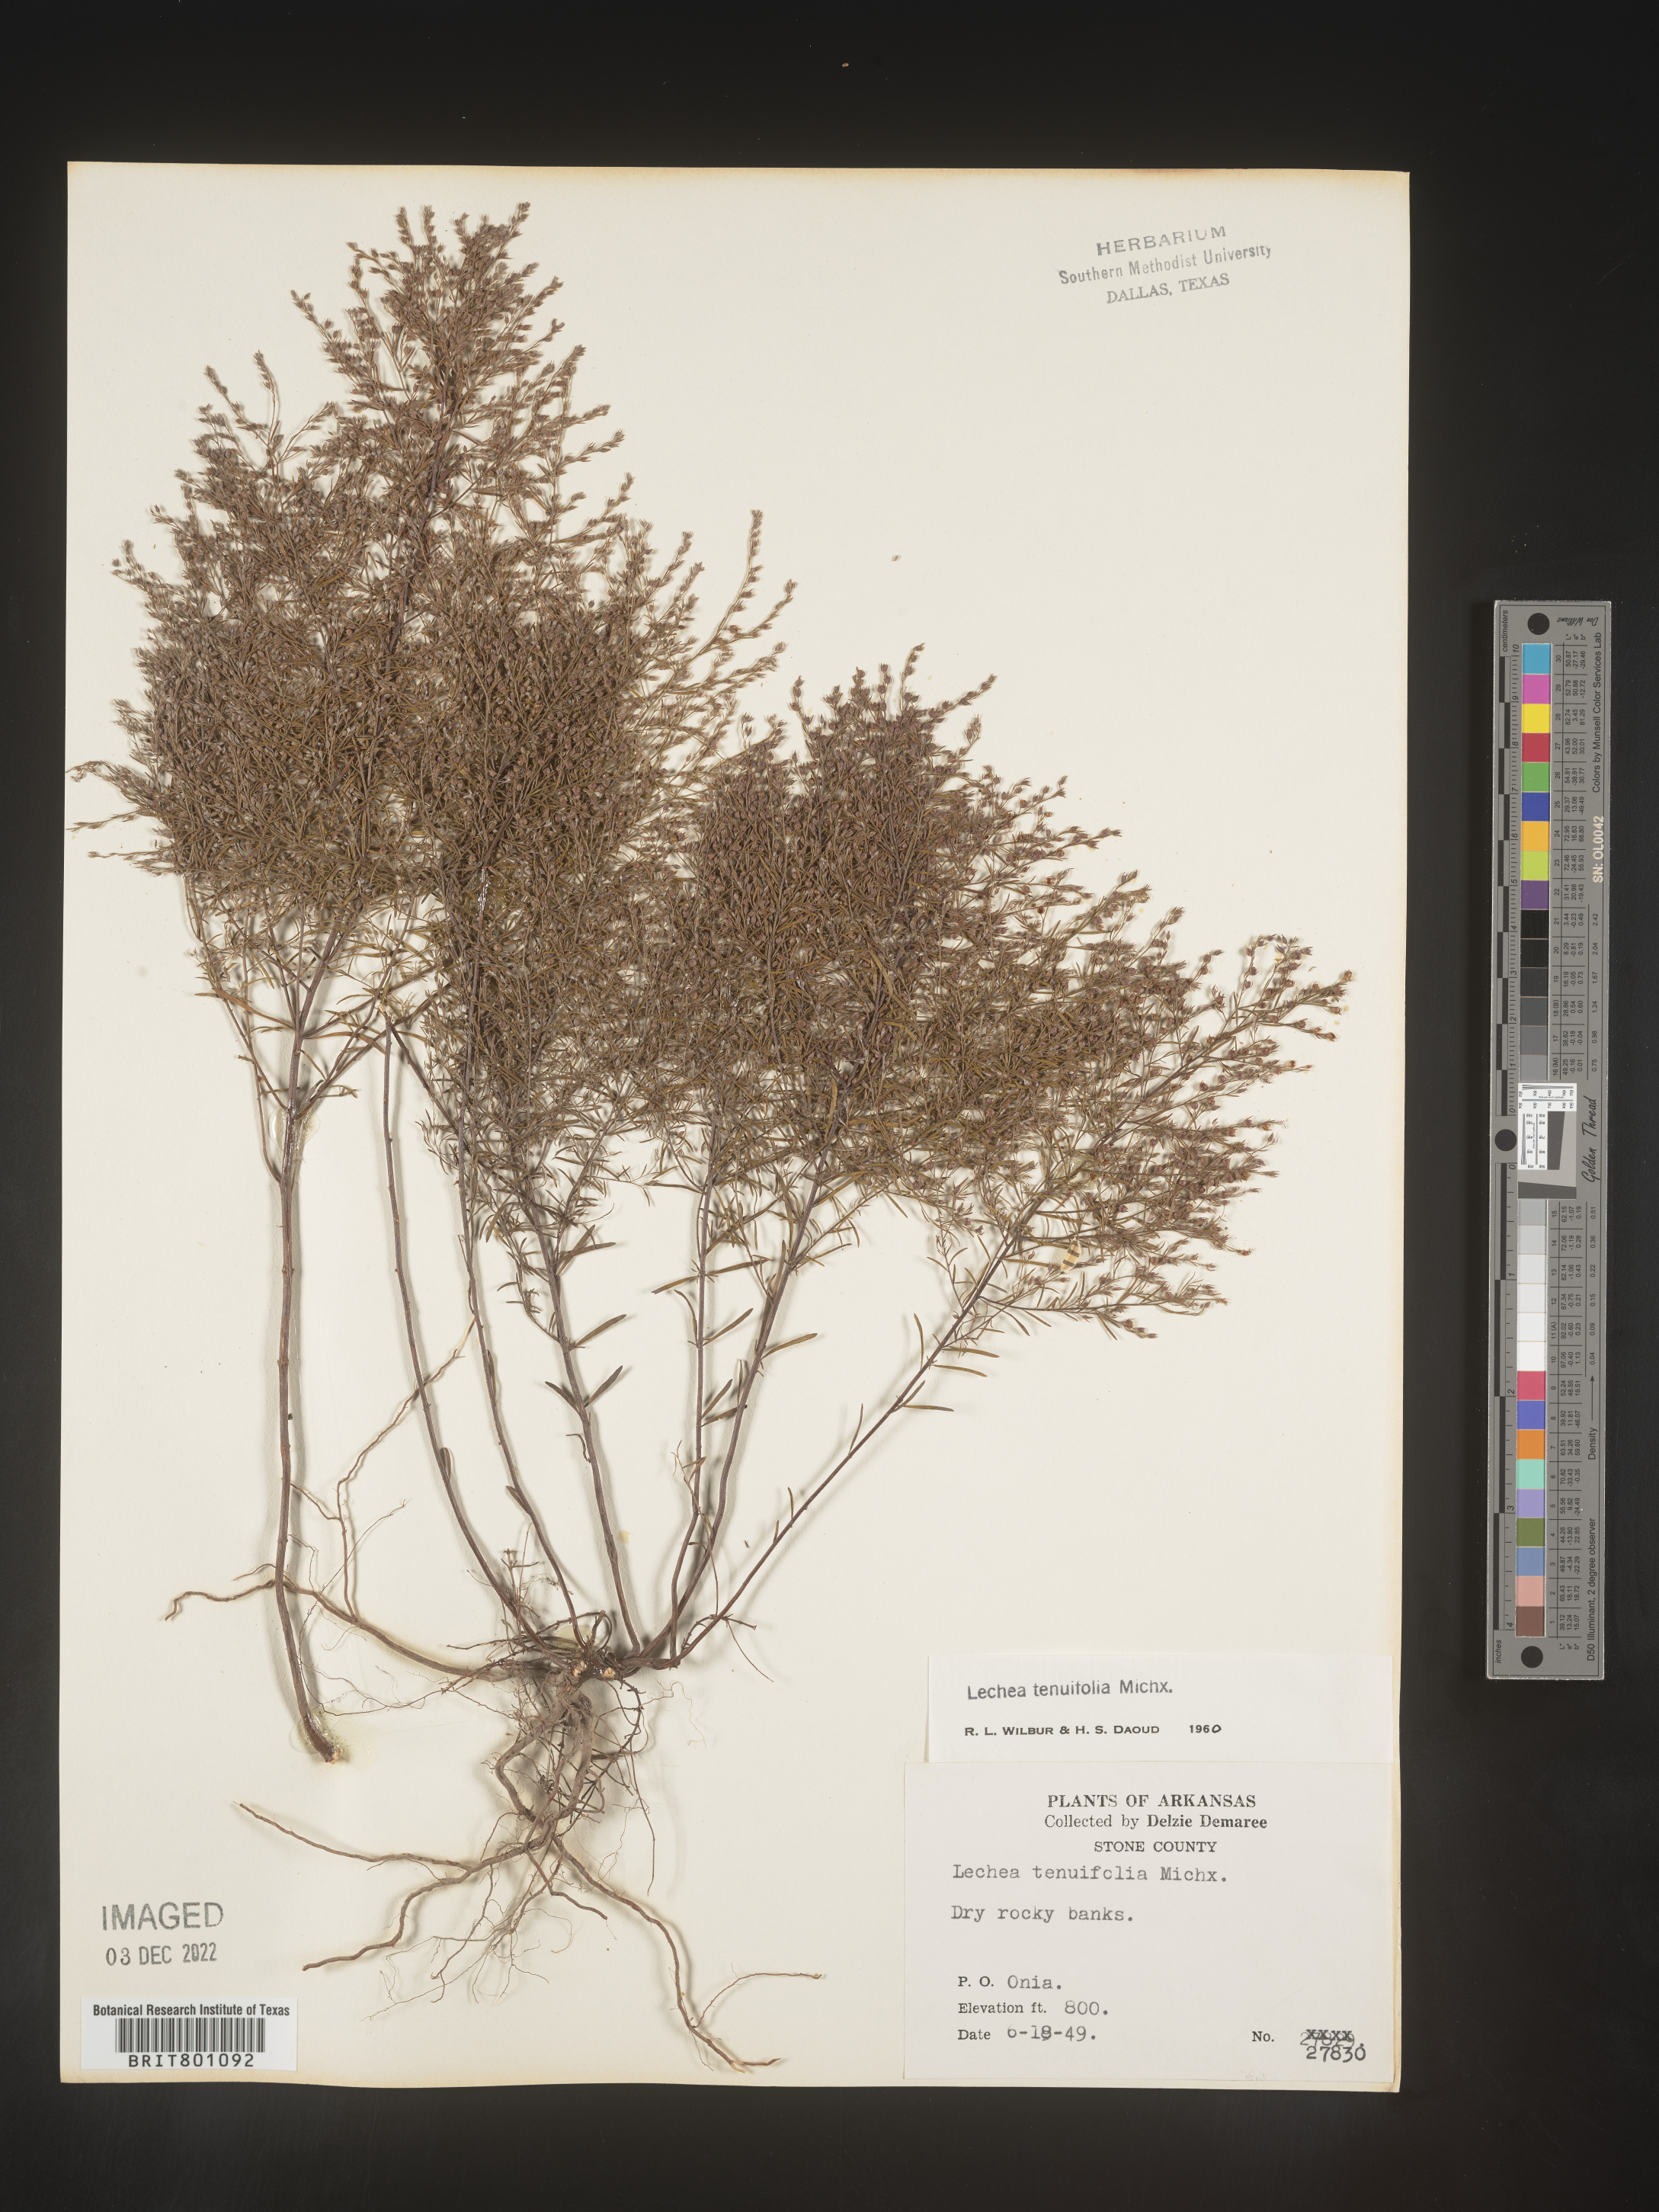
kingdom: Plantae
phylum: Tracheophyta
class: Magnoliopsida
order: Malvales
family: Cistaceae
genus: Lechea
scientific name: Lechea tenuifolia
